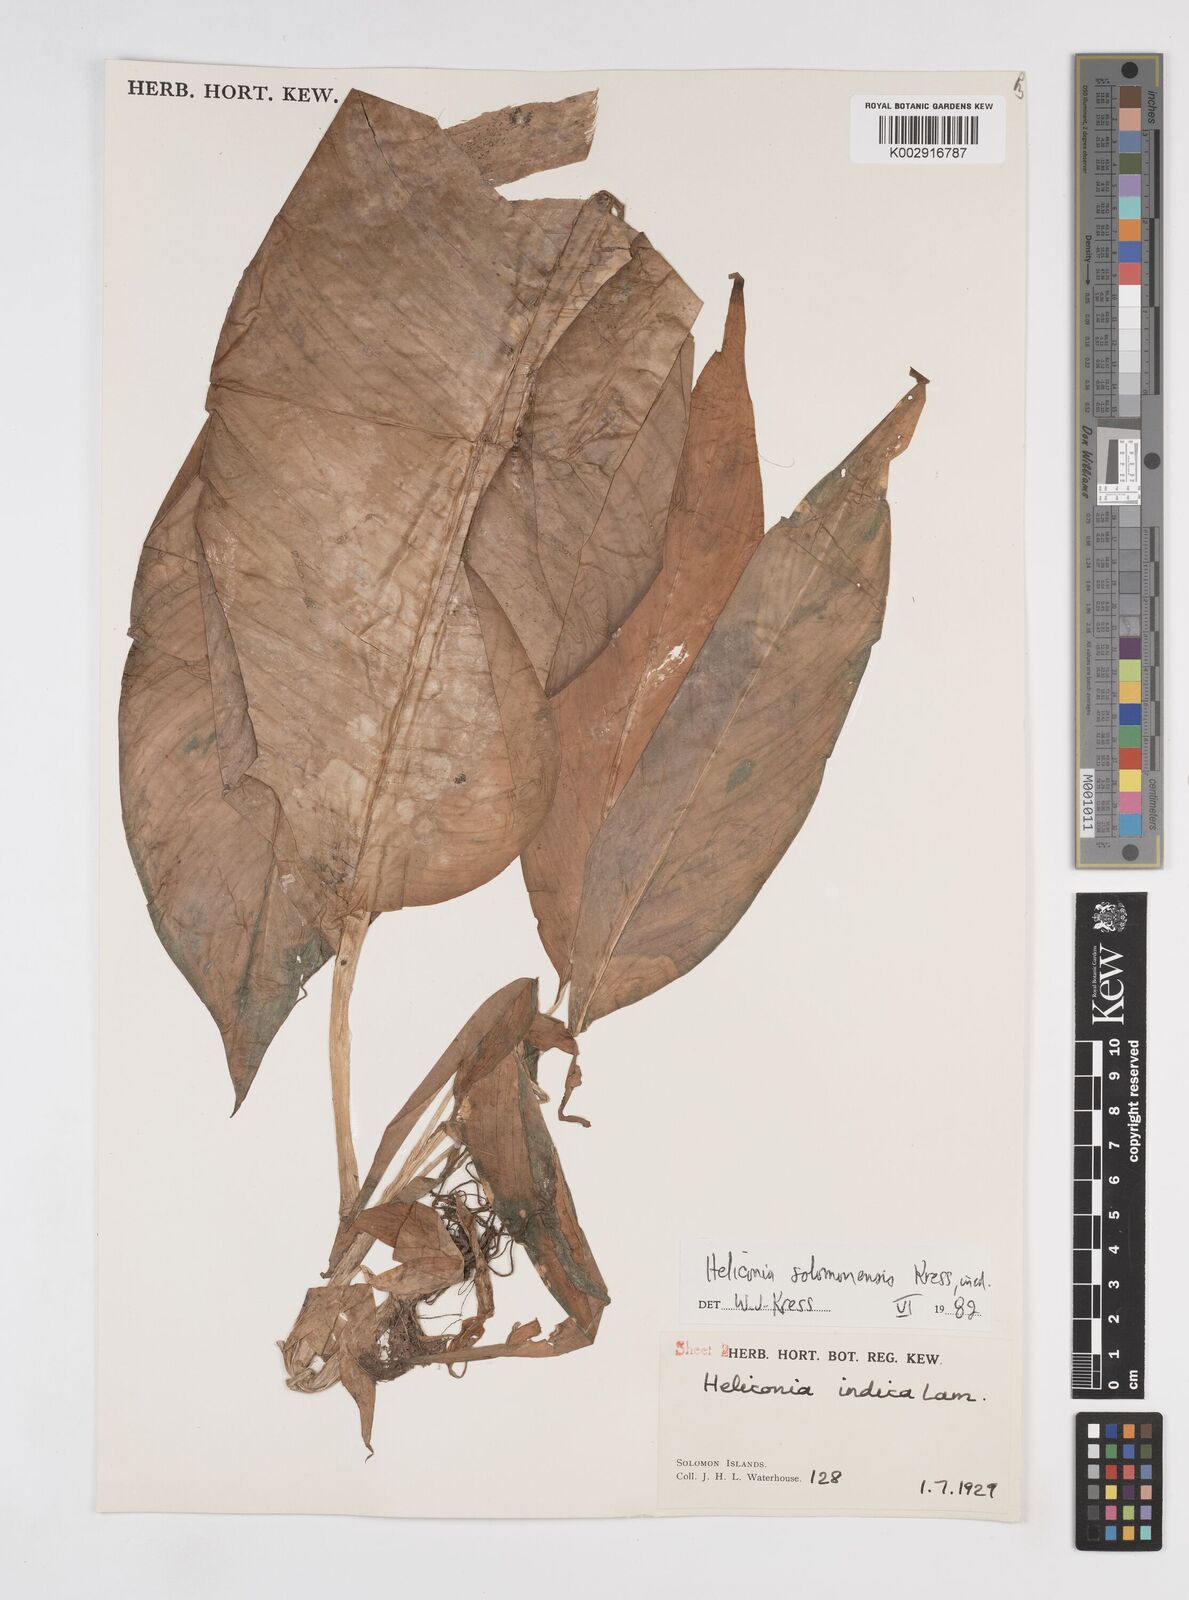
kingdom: Plantae
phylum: Tracheophyta
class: Liliopsida
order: Zingiberales
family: Heliconiaceae
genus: Heliconia
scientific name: Heliconia solomonensis
